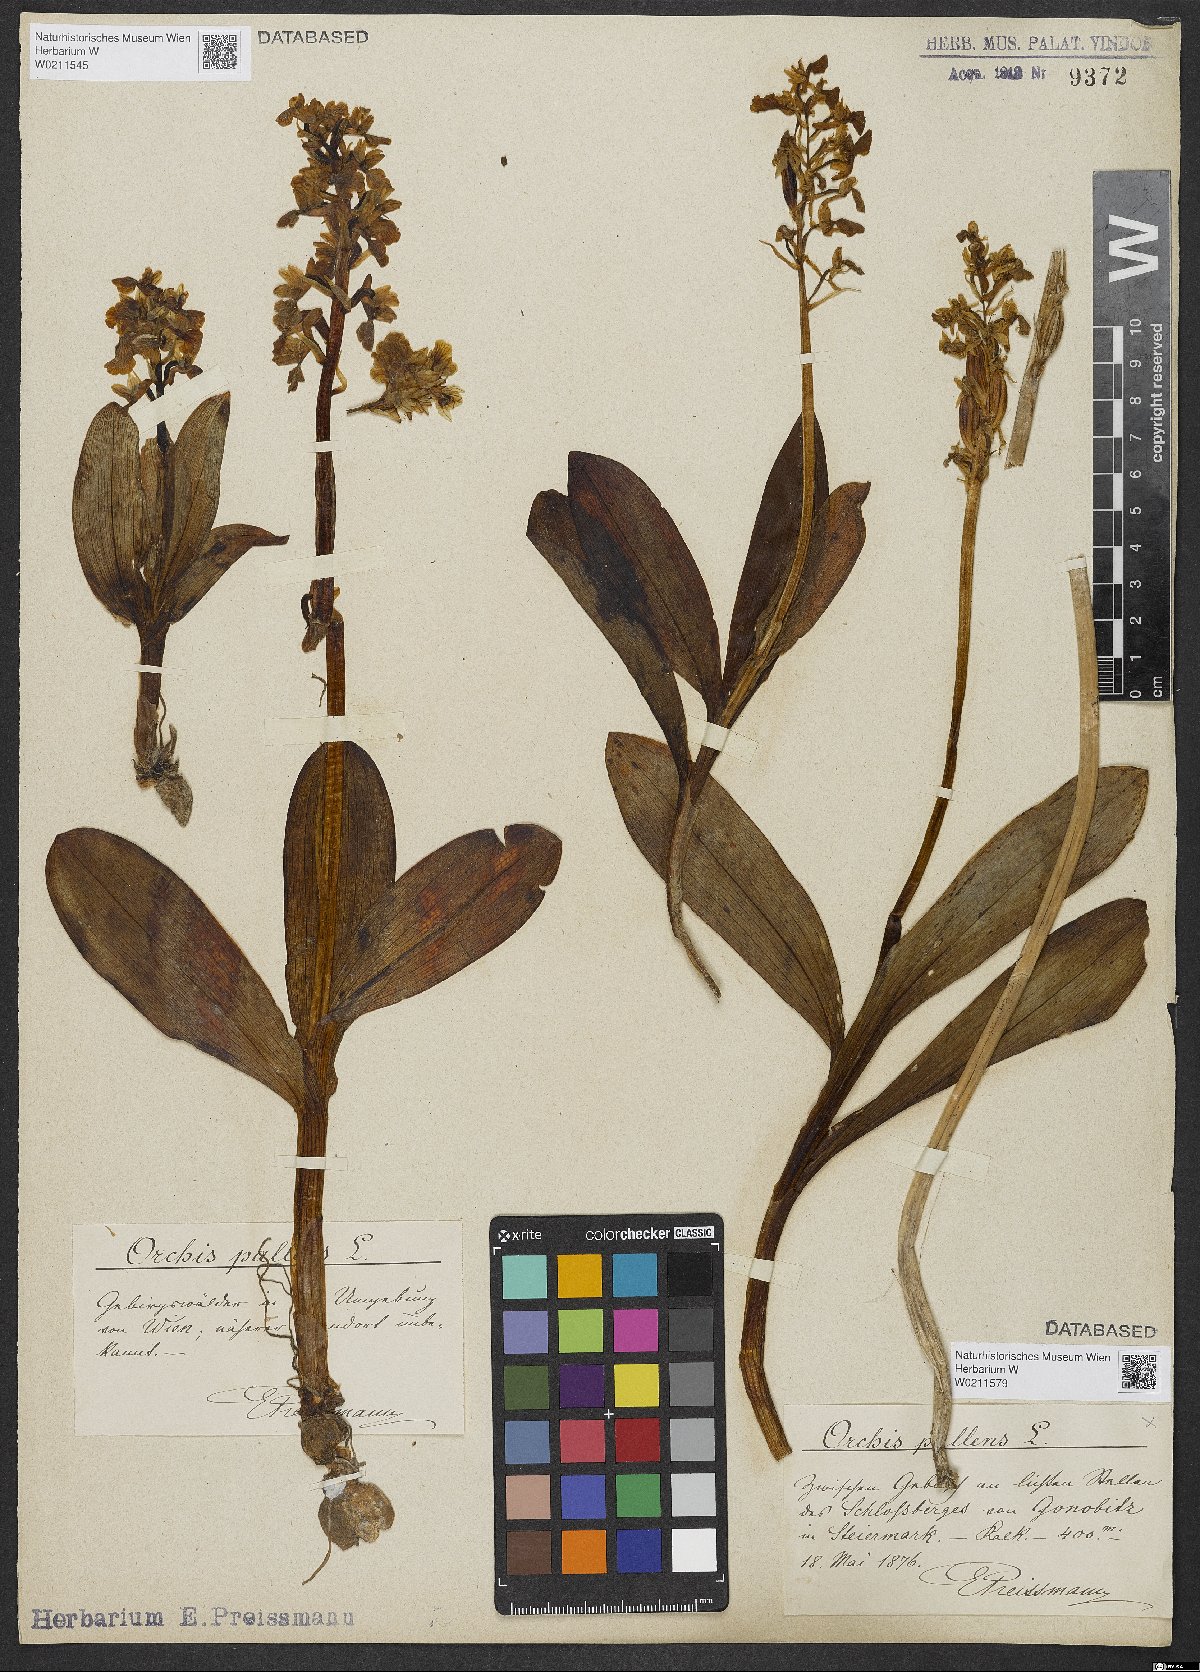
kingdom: Plantae
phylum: Tracheophyta
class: Liliopsida
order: Asparagales
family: Orchidaceae
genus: Orchis
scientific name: Orchis pallens
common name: Pale-flowered orchid
